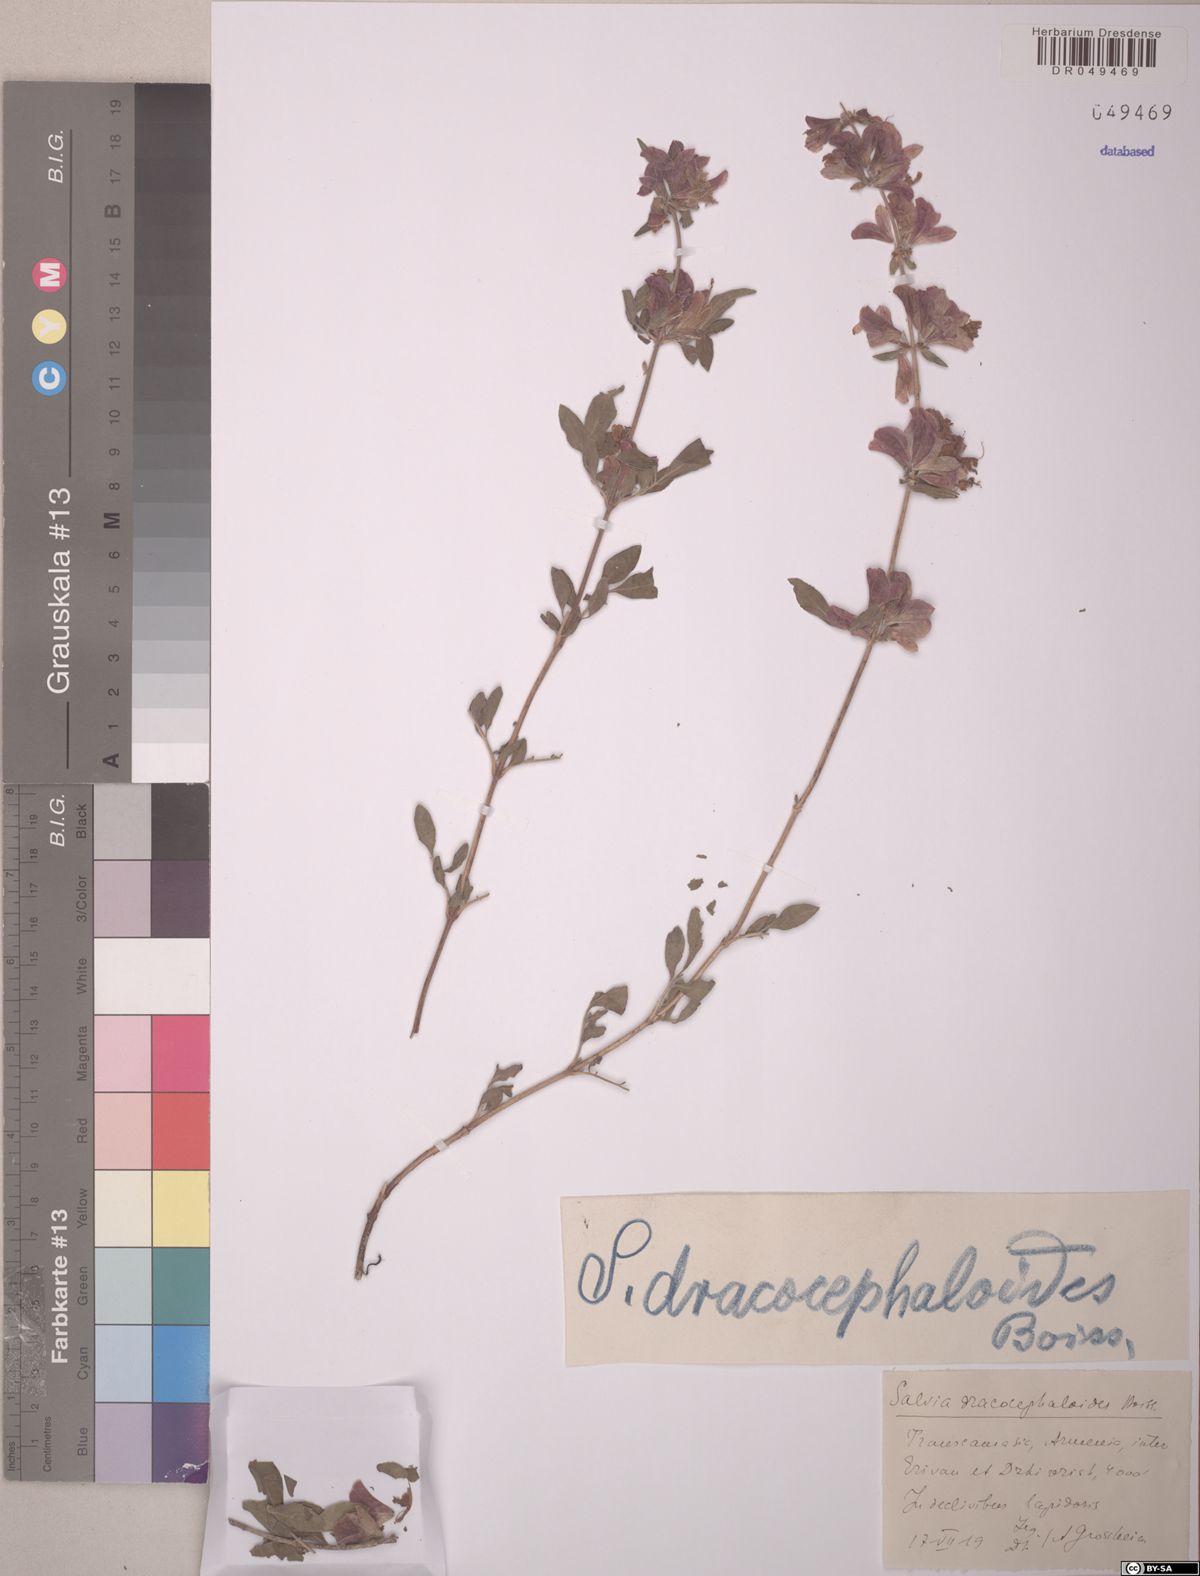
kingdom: Plantae
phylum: Tracheophyta
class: Magnoliopsida
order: Lamiales
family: Lamiaceae
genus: Salvia
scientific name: Salvia hydrangea
